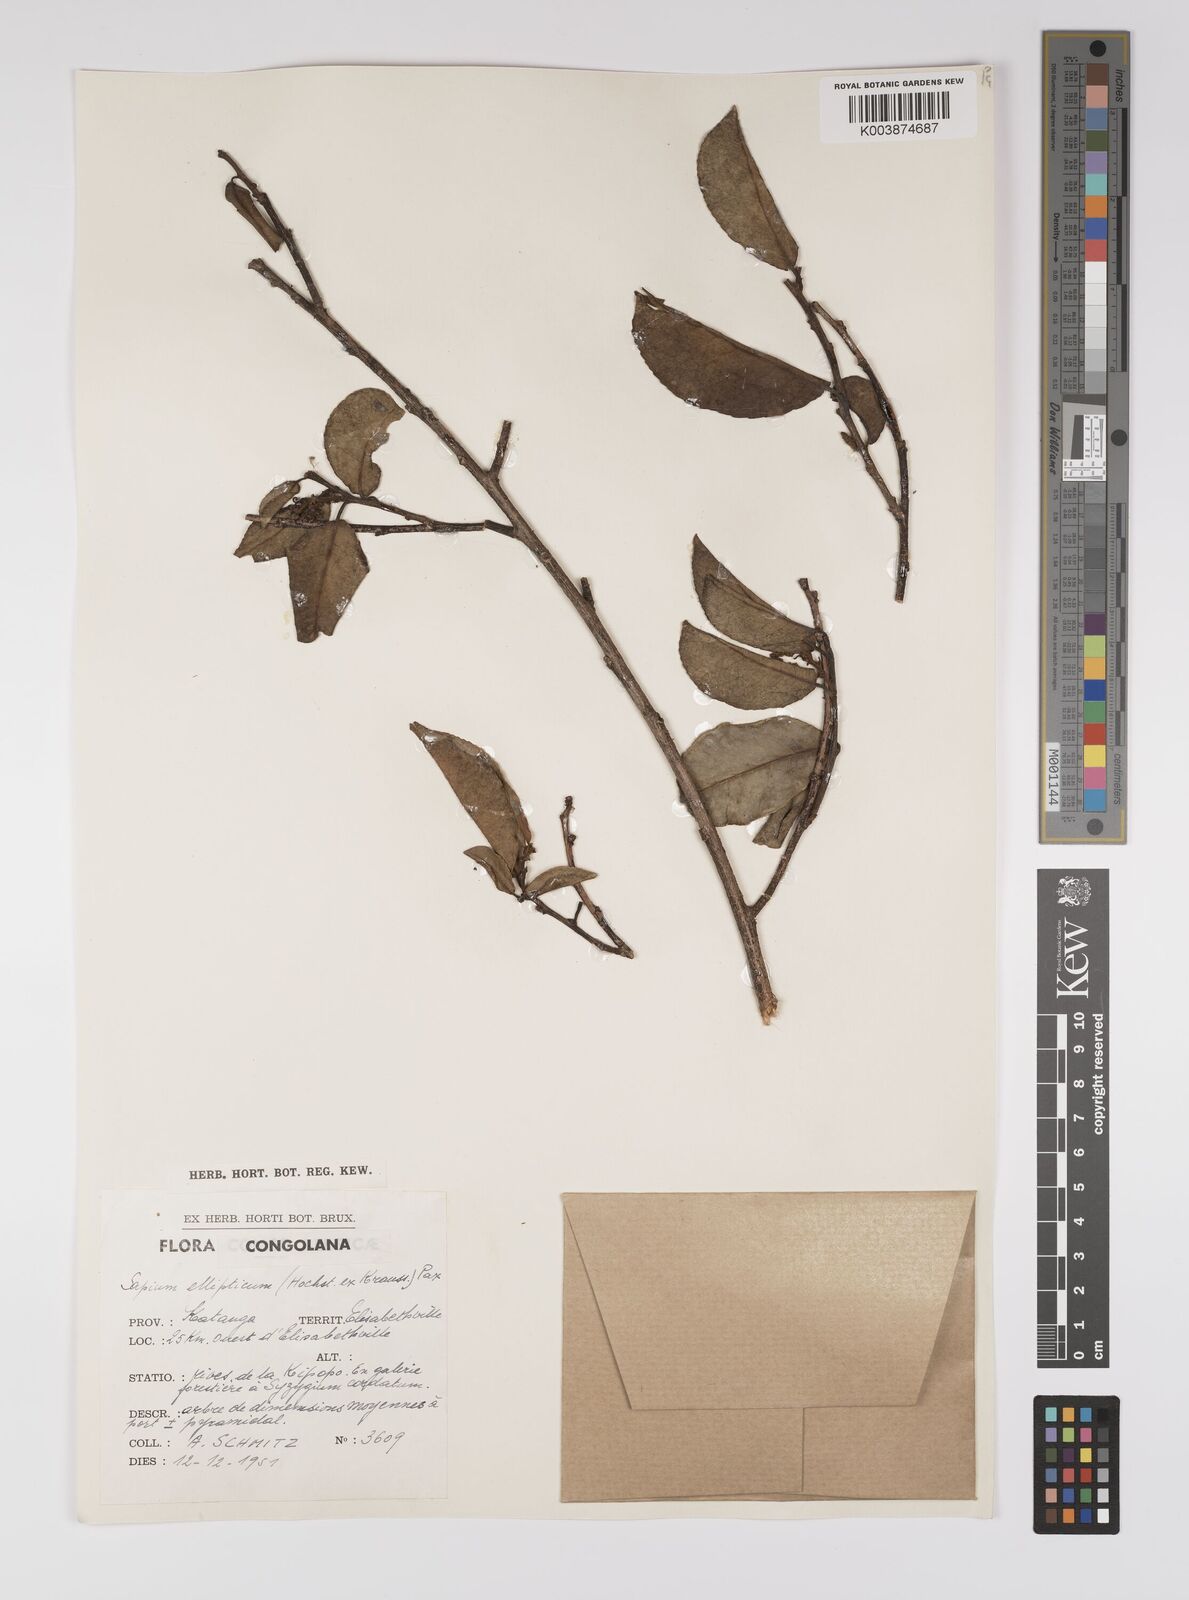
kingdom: Plantae
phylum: Tracheophyta
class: Magnoliopsida
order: Malpighiales
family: Euphorbiaceae
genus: Shirakiopsis
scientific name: Shirakiopsis elliptica
